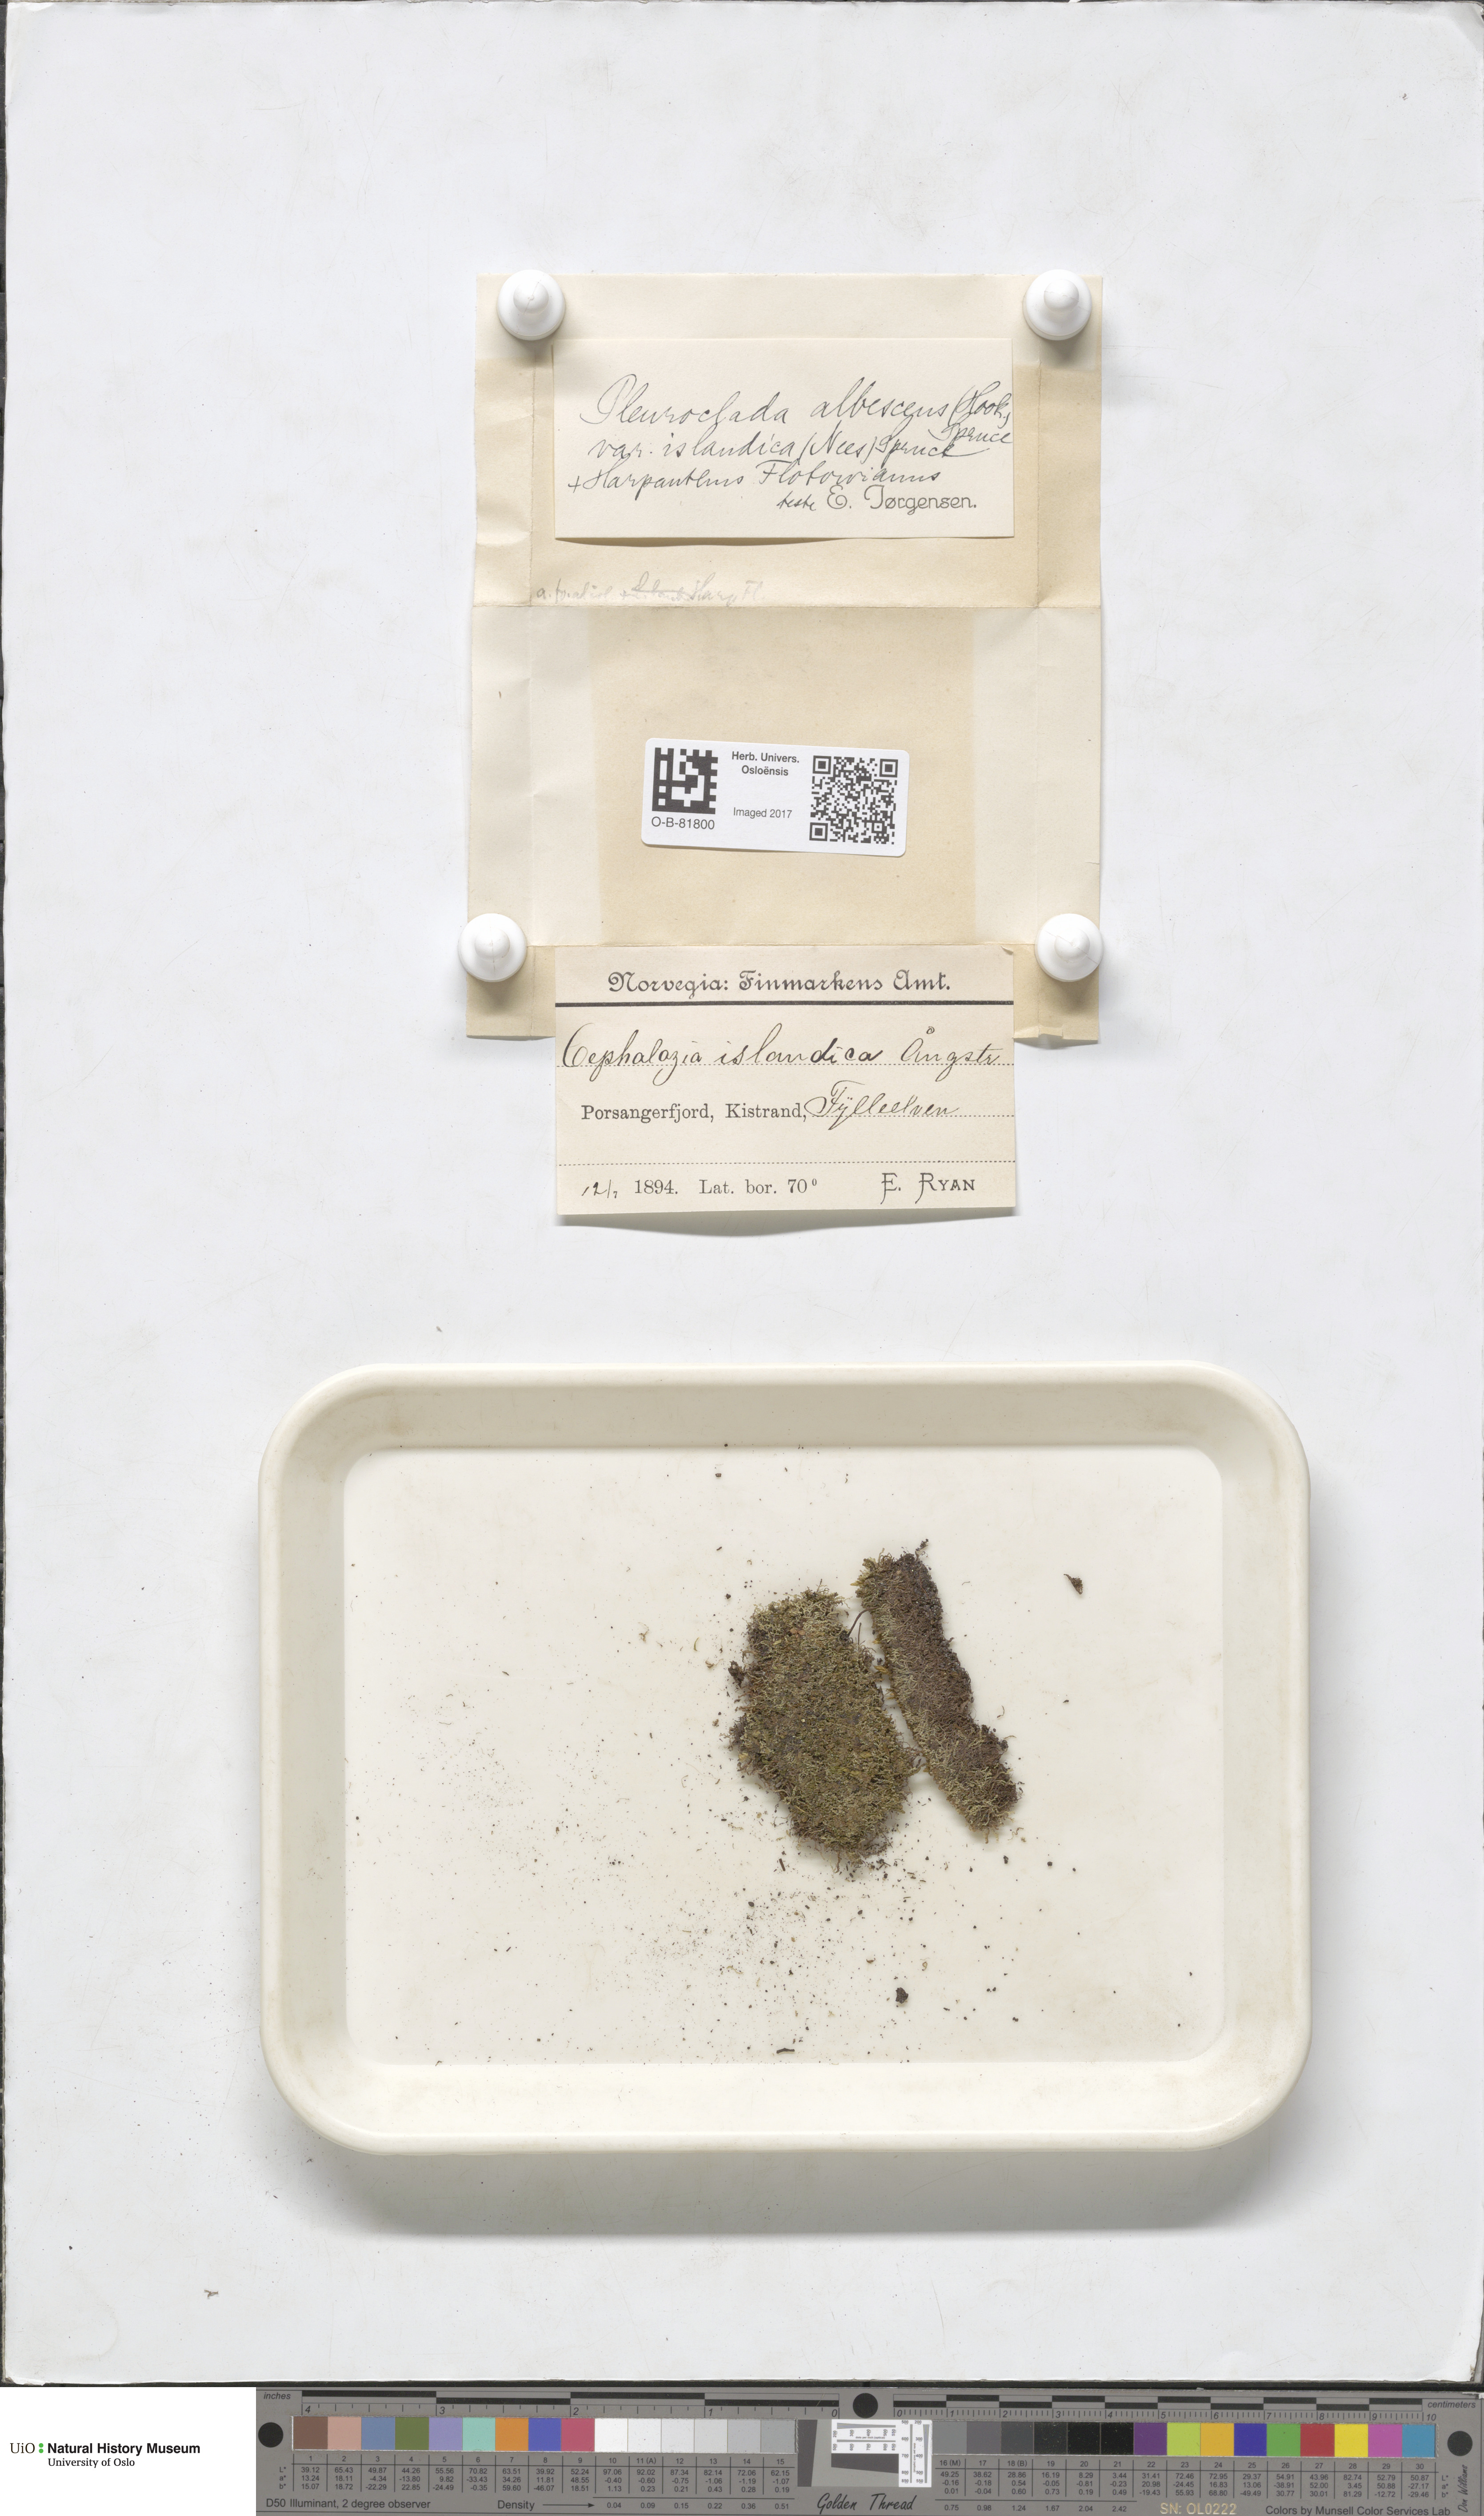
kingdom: Plantae
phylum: Marchantiophyta
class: Jungermanniopsida
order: Jungermanniales
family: Cephaloziaceae
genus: Fuscocephaloziopsis
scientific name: Fuscocephaloziopsis albescens
